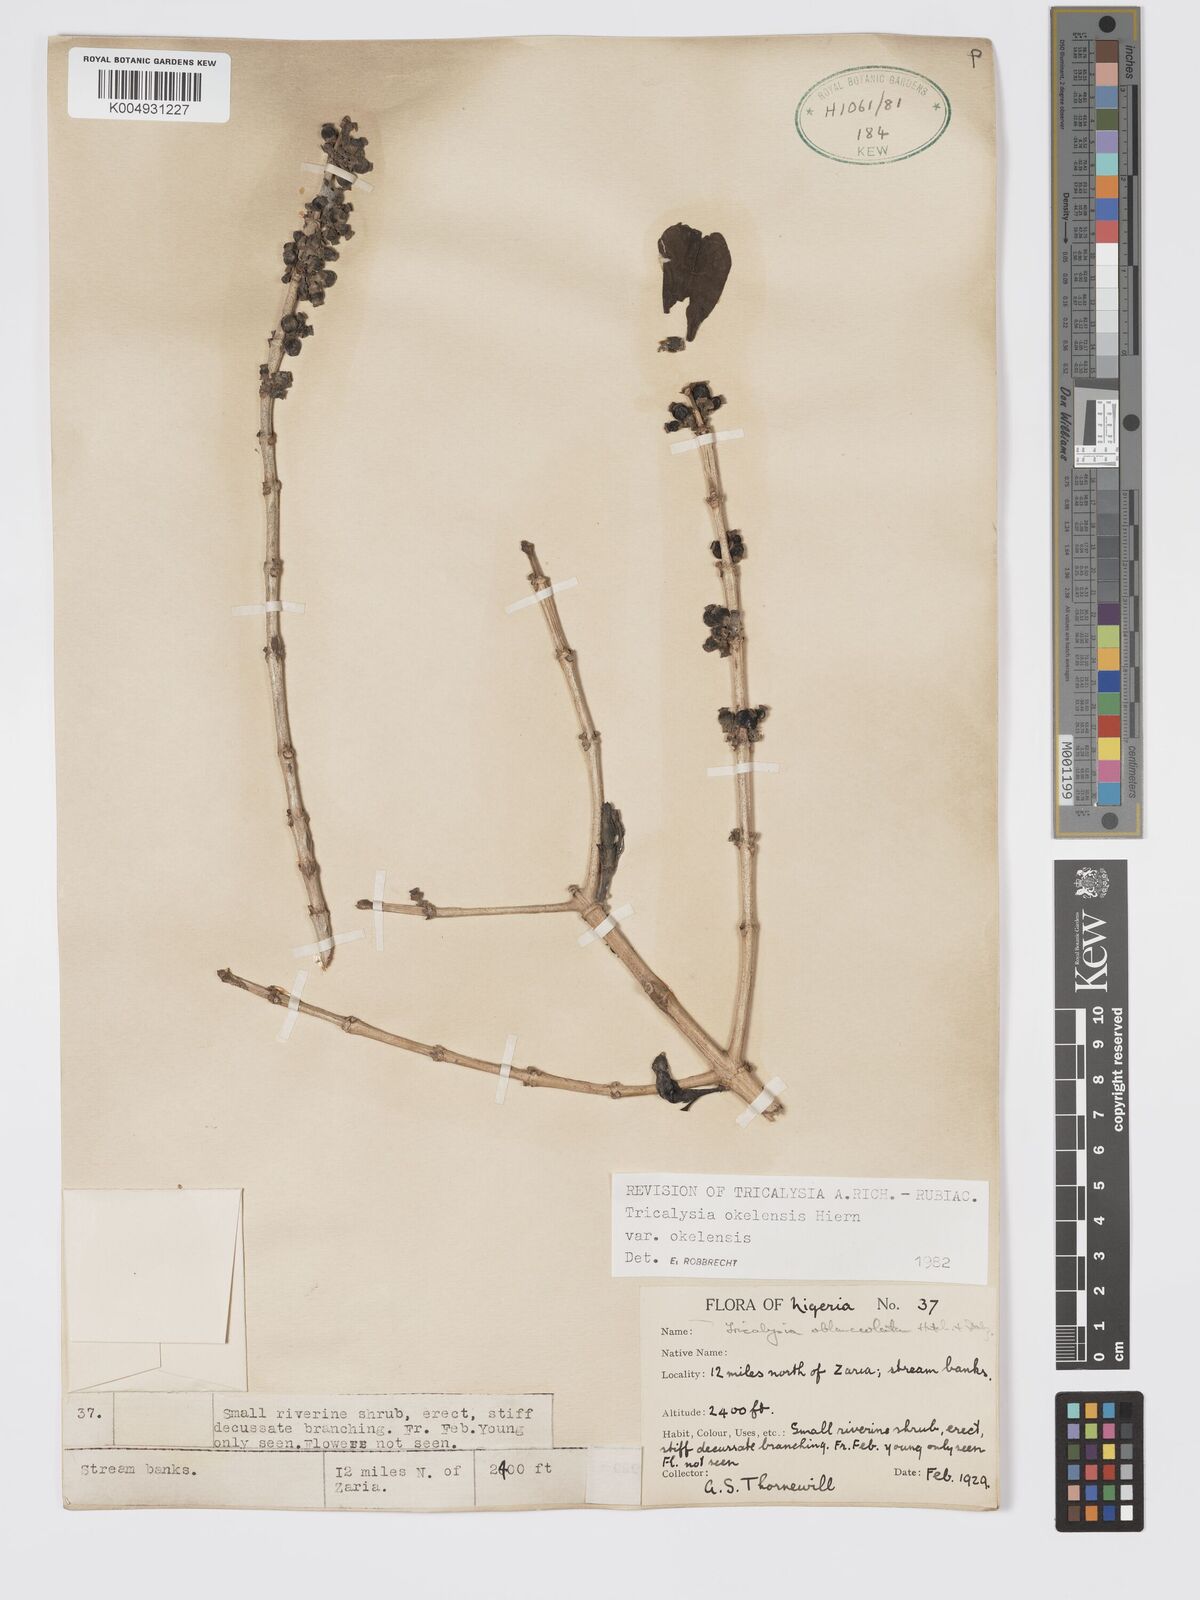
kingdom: Plantae
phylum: Tracheophyta
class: Magnoliopsida
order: Gentianales
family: Rubiaceae
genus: Tricalysia
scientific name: Tricalysia okelensis
